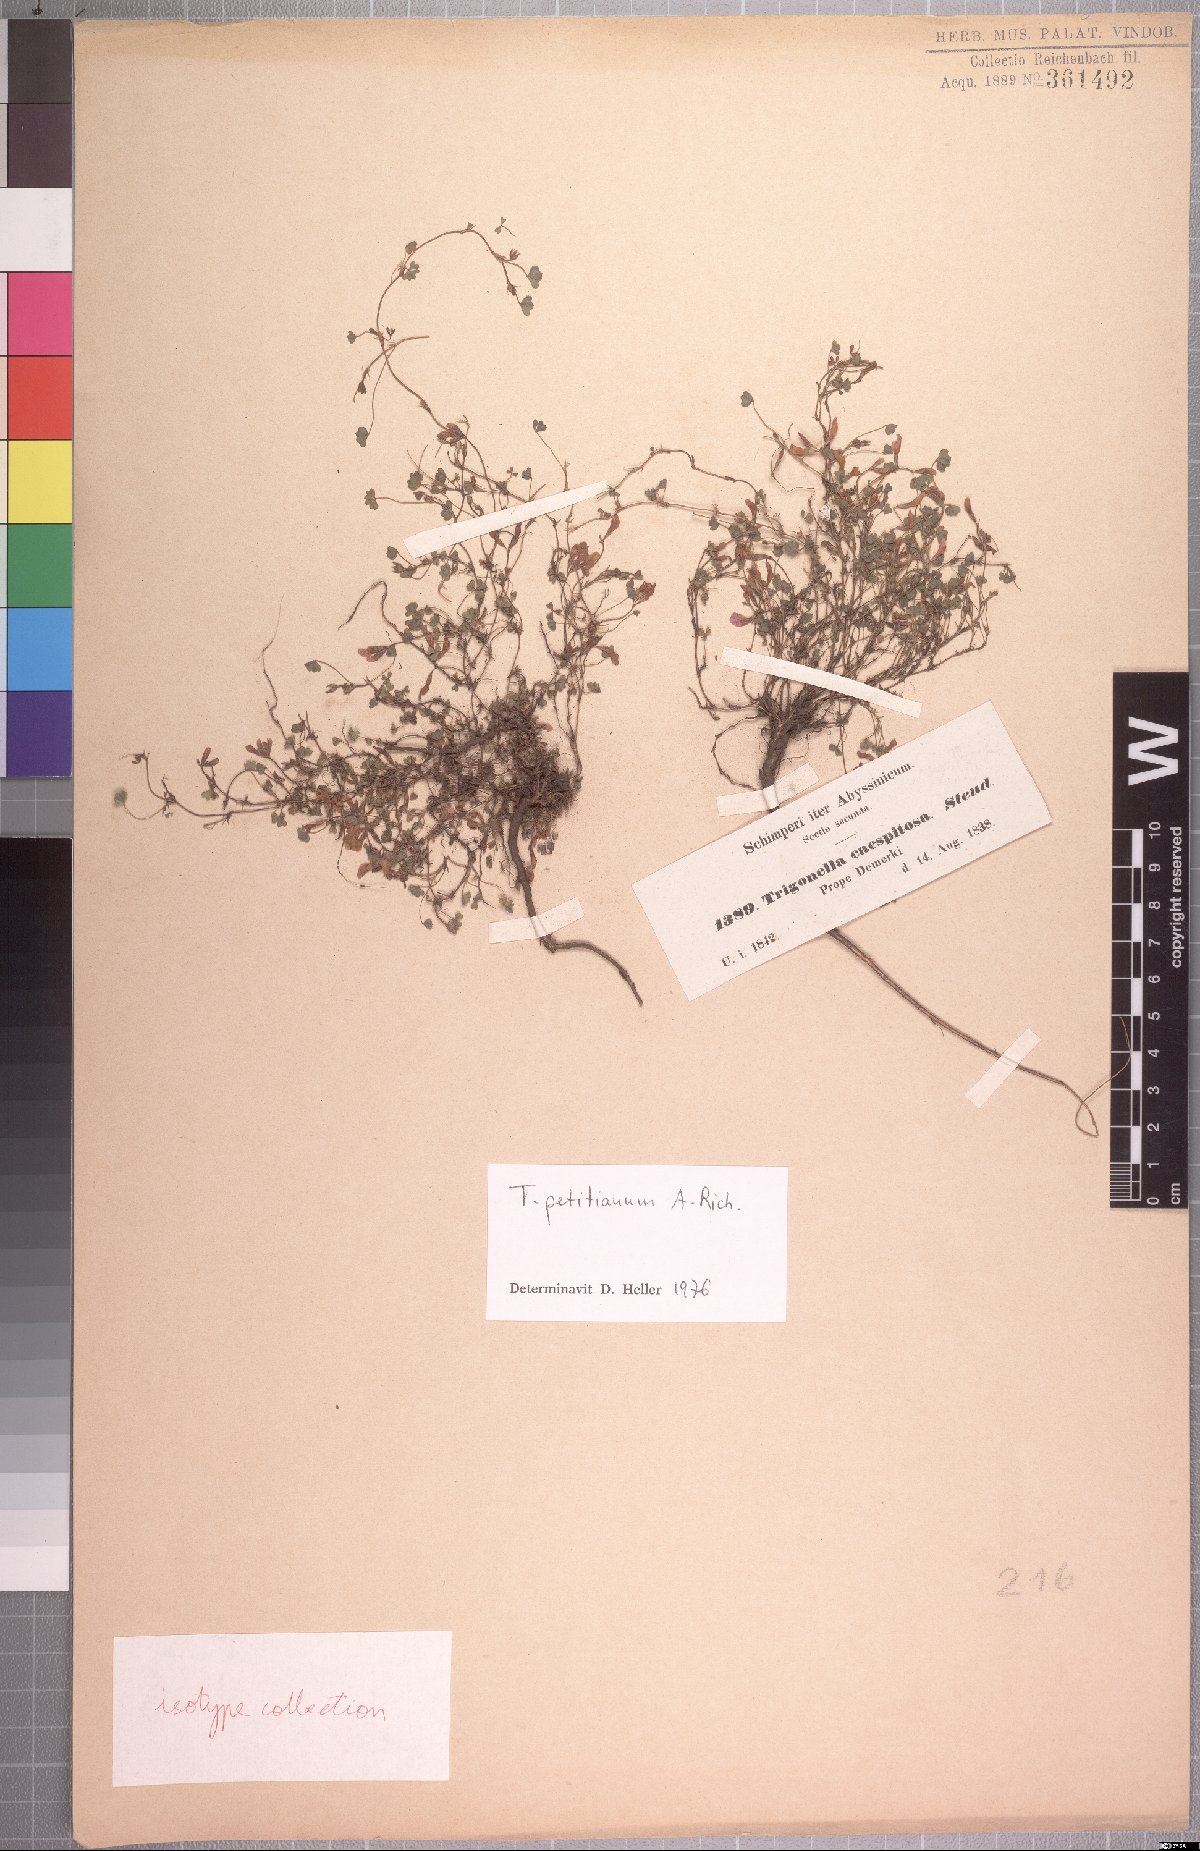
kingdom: Plantae
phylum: Tracheophyta
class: Magnoliopsida
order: Fabales
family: Fabaceae
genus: Trifolium
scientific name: Trifolium acaule
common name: Stemless clover
